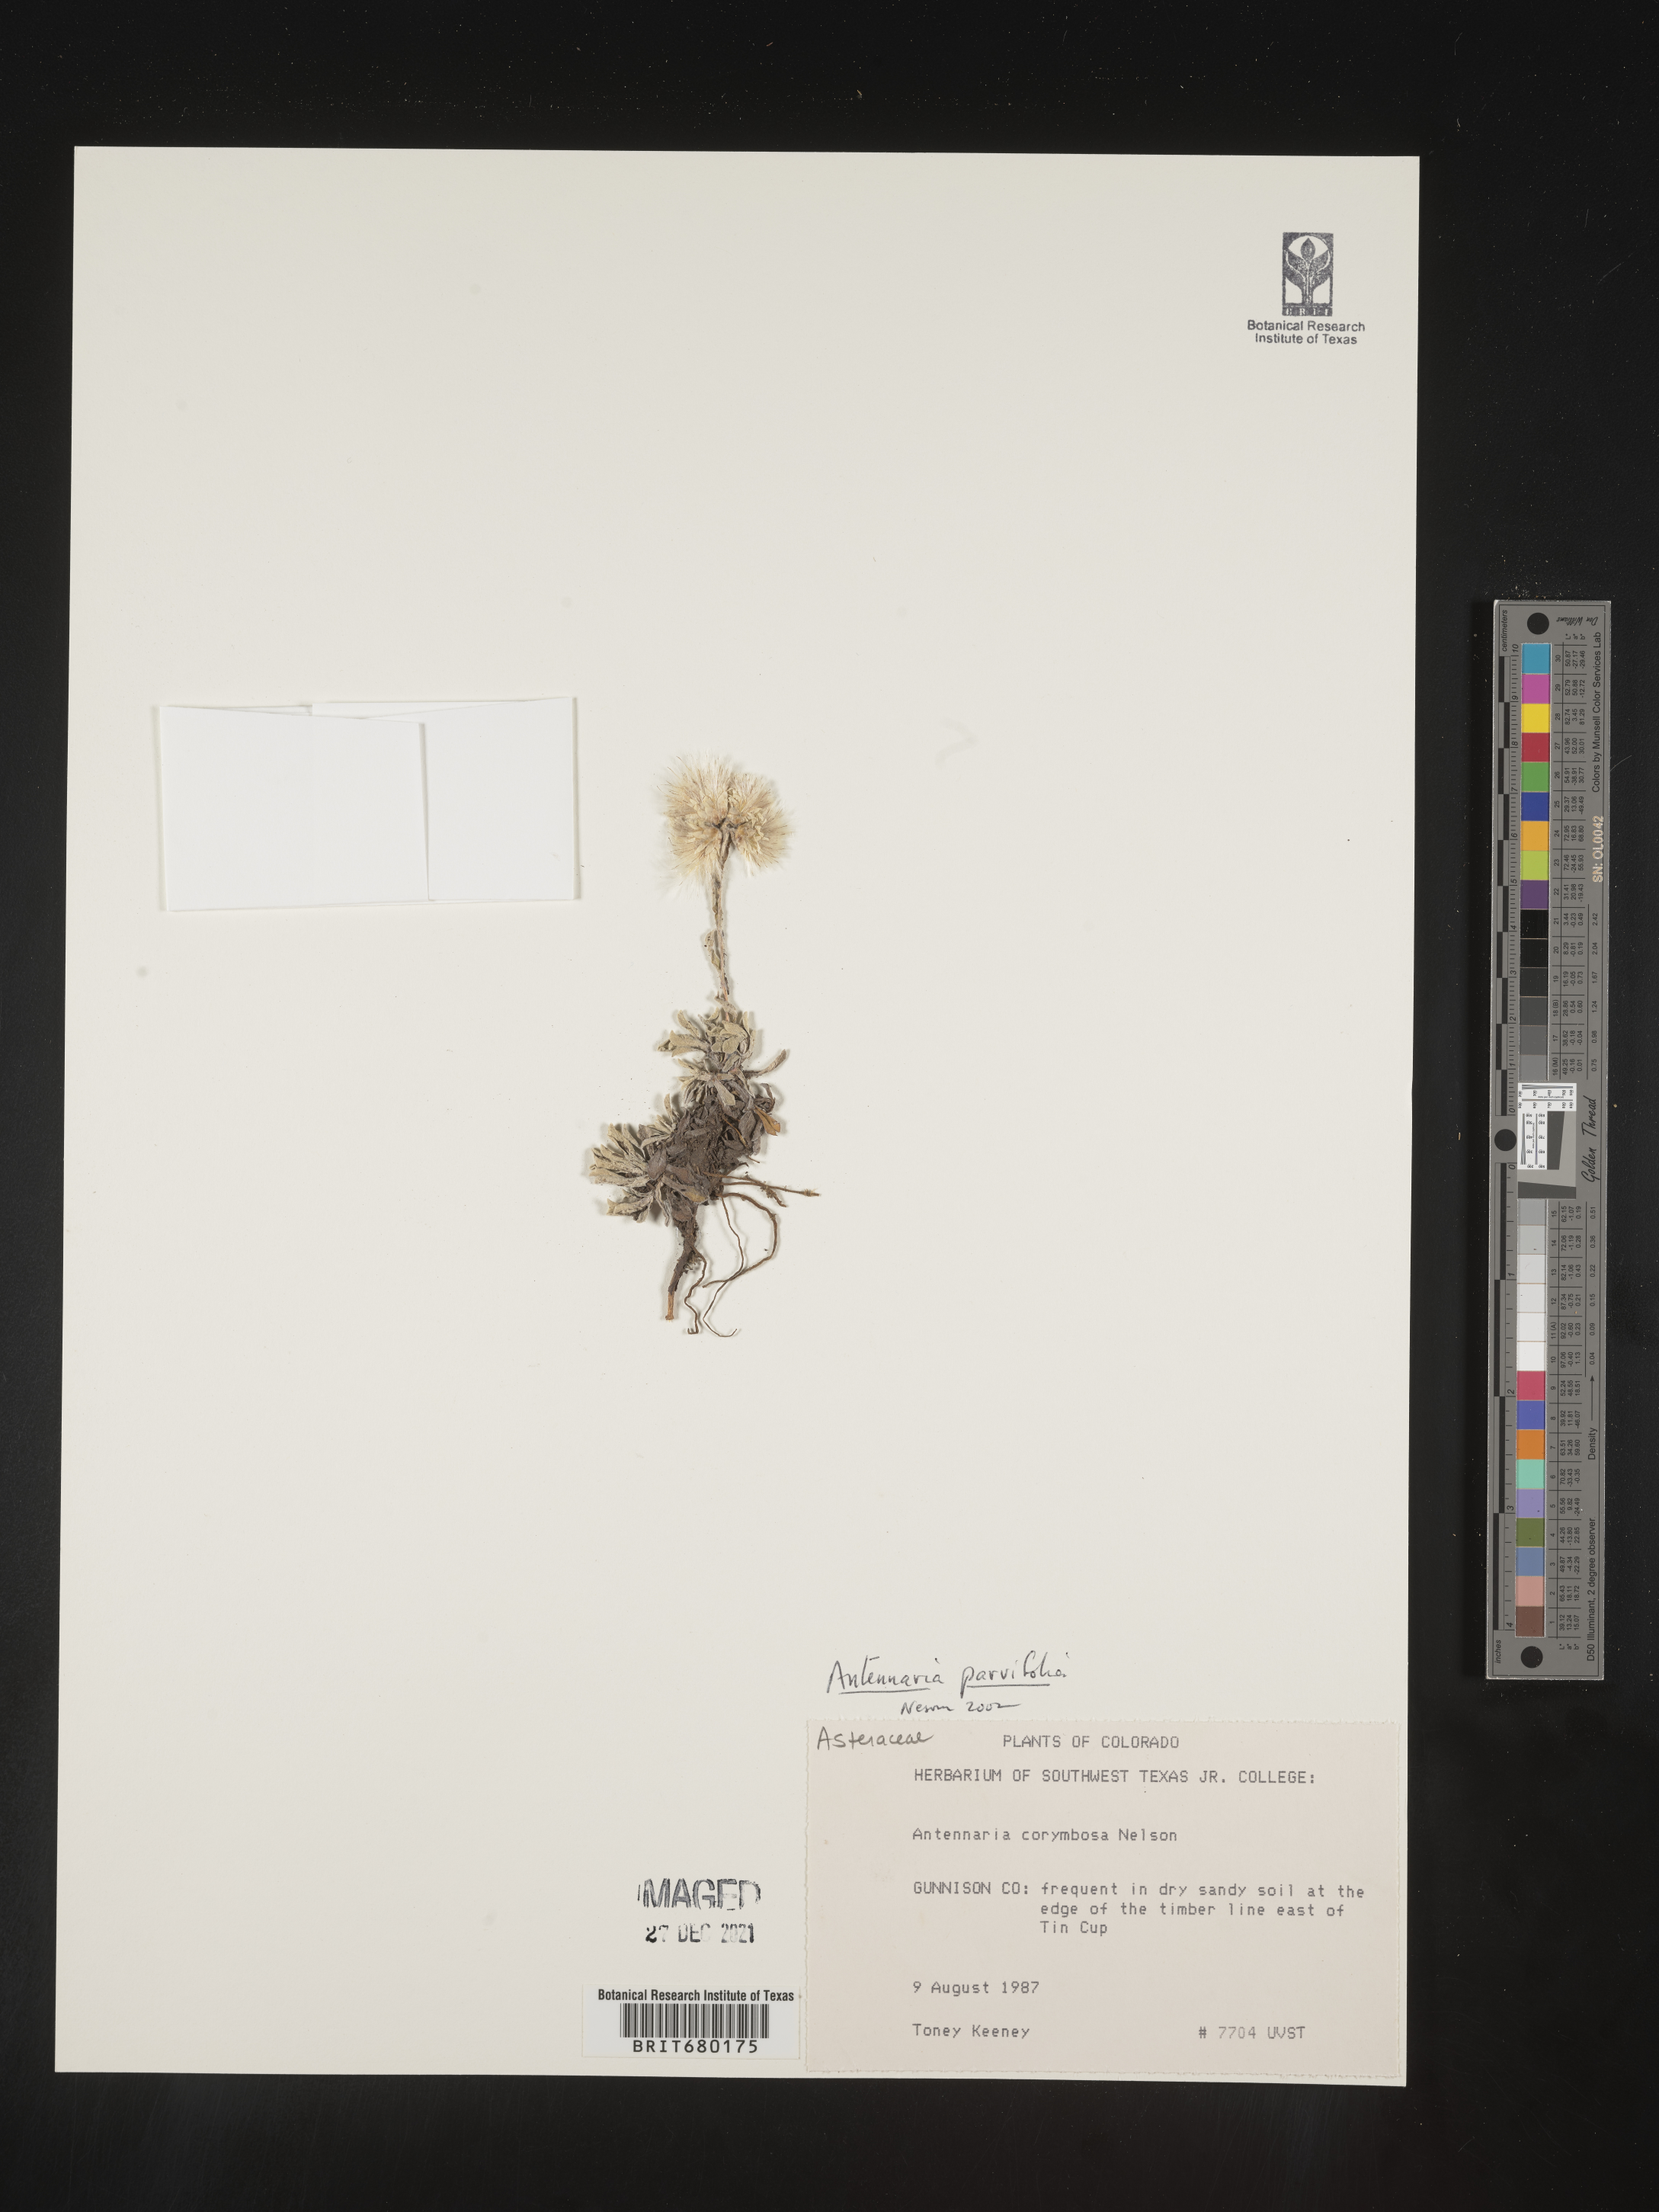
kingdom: Plantae
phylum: Tracheophyta
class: Magnoliopsida
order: Asterales
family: Asteraceae
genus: Antennaria
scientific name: Antennaria plantaginifolia
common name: Plantain-leaved pussytoes
